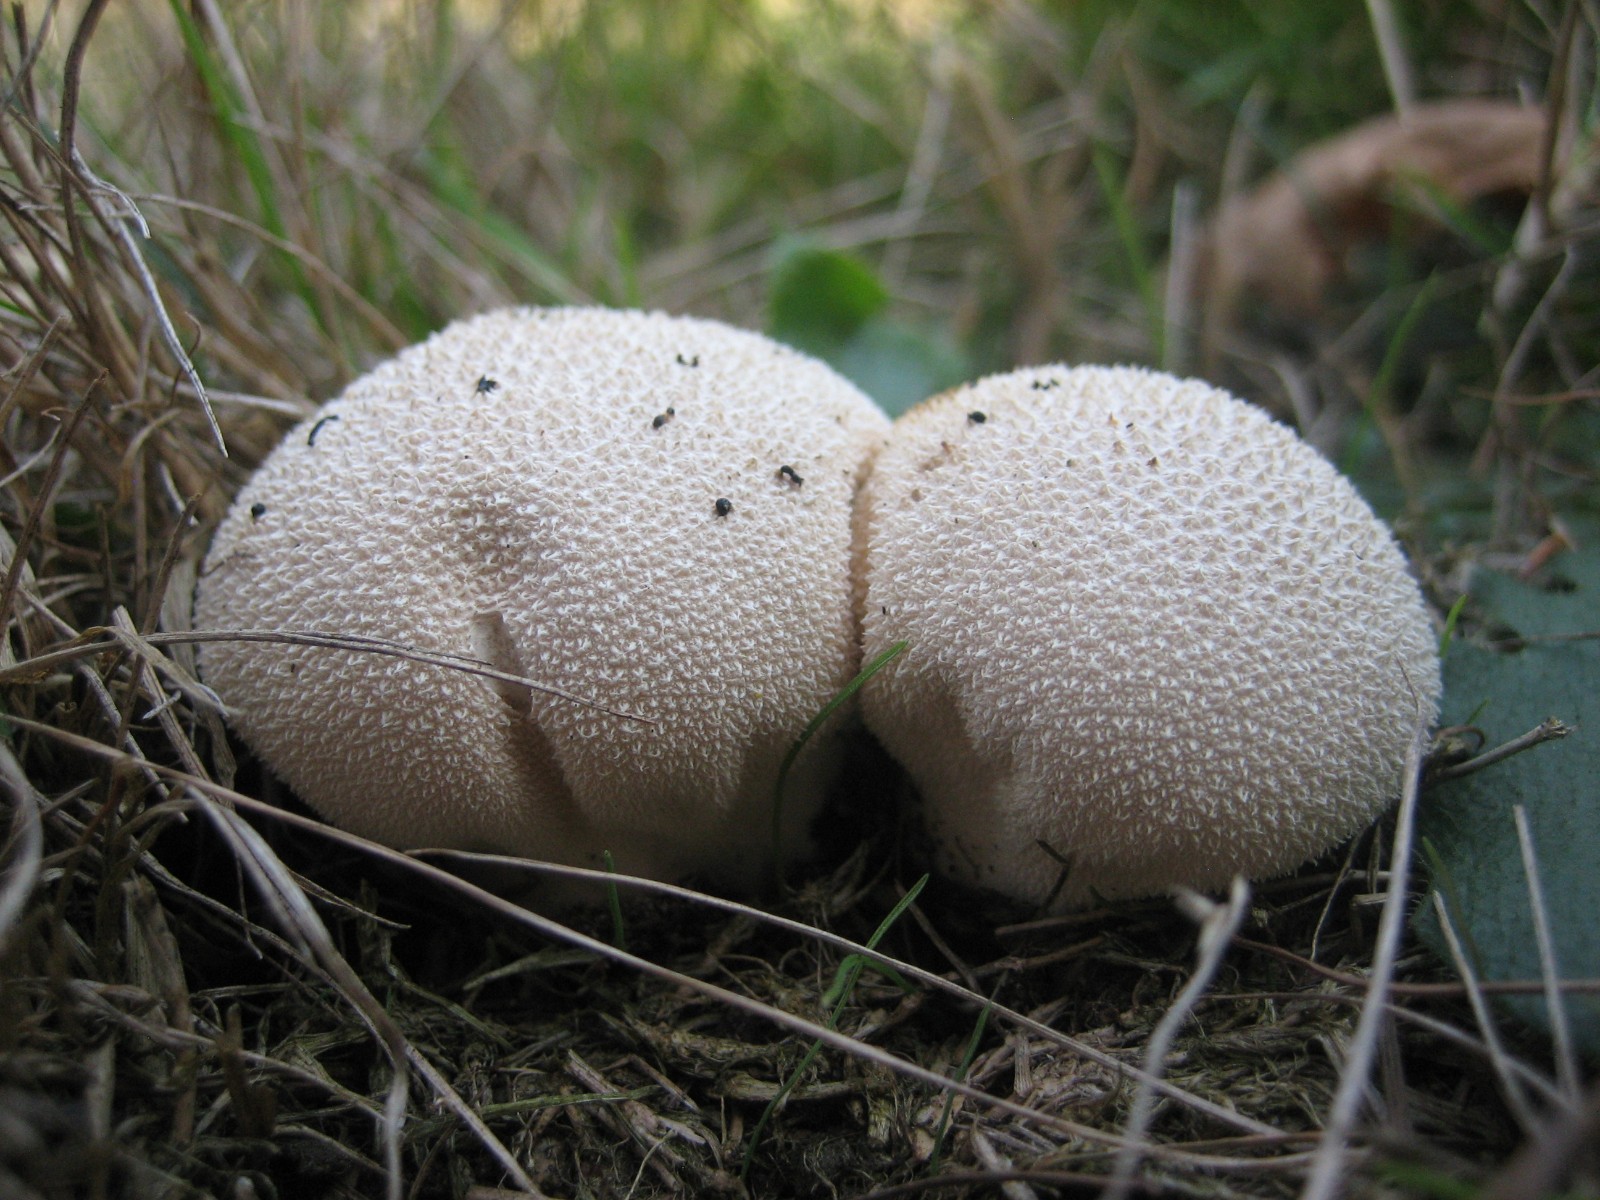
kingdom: Fungi
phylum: Basidiomycota
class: Agaricomycetes
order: Agaricales
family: Lycoperdaceae
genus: Lycoperdon
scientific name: Lycoperdon pratense
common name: flad støvbold
